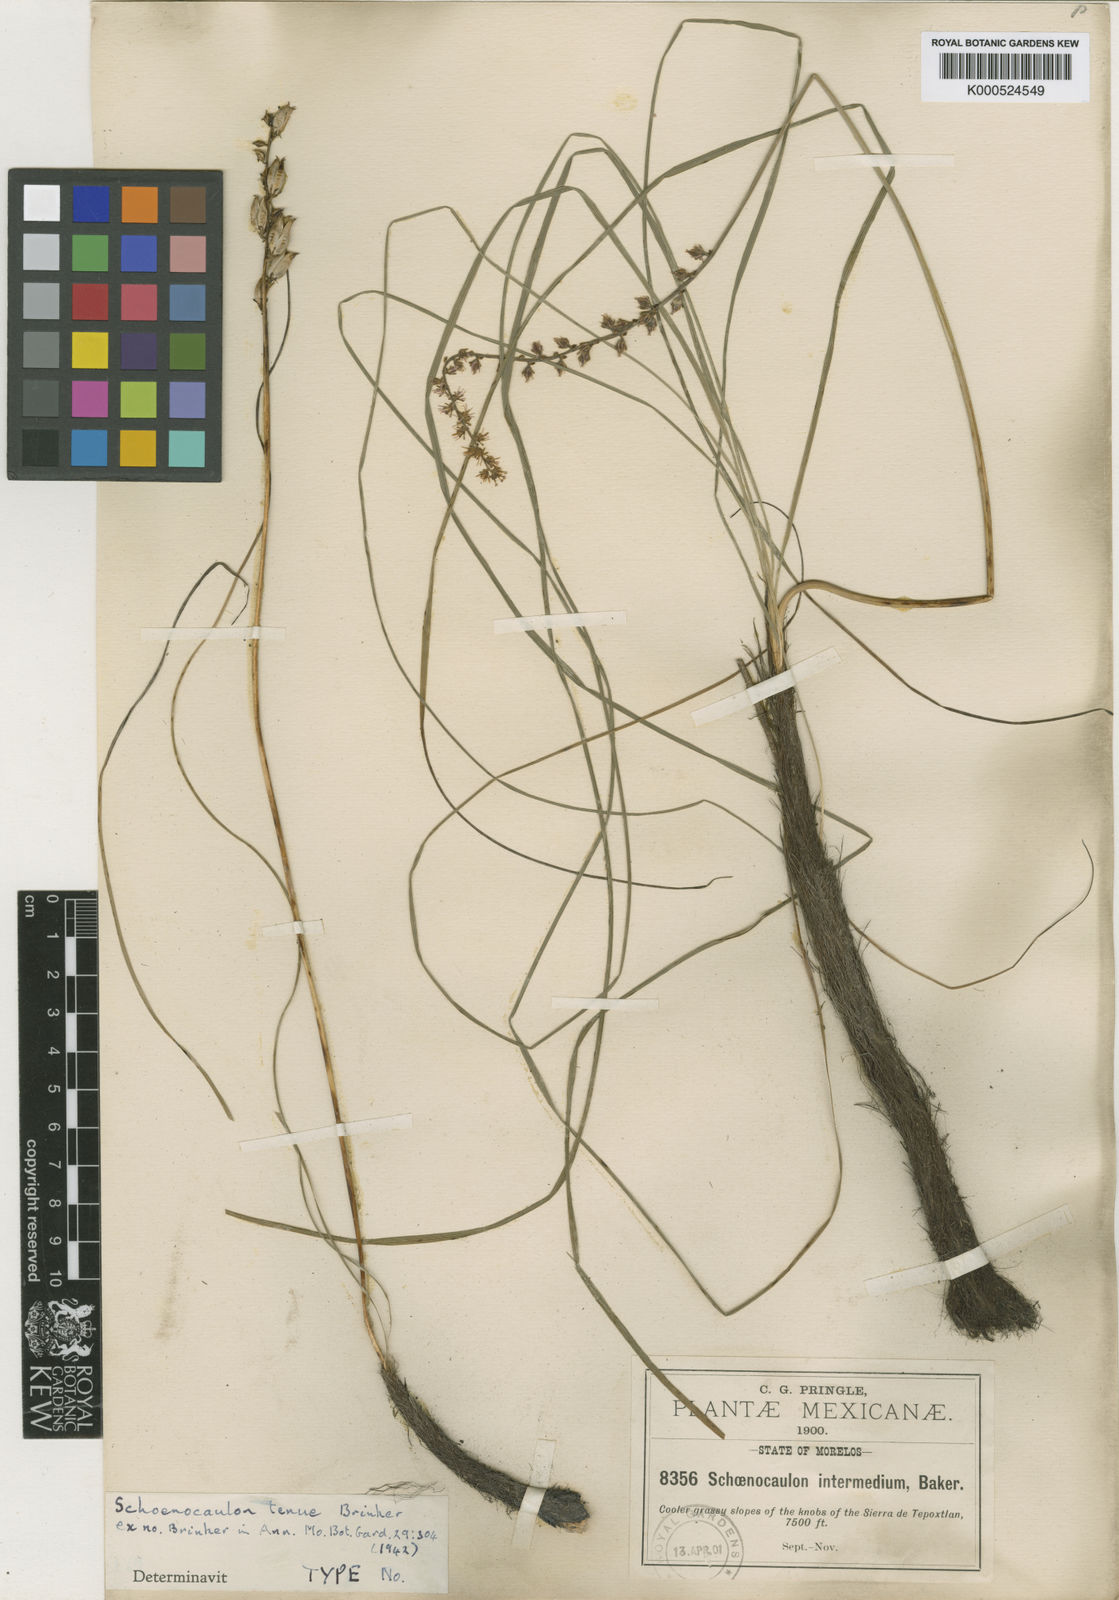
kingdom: Plantae
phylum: Tracheophyta
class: Liliopsida
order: Liliales
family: Melanthiaceae
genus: Schoenocaulon
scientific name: Schoenocaulon tenue
